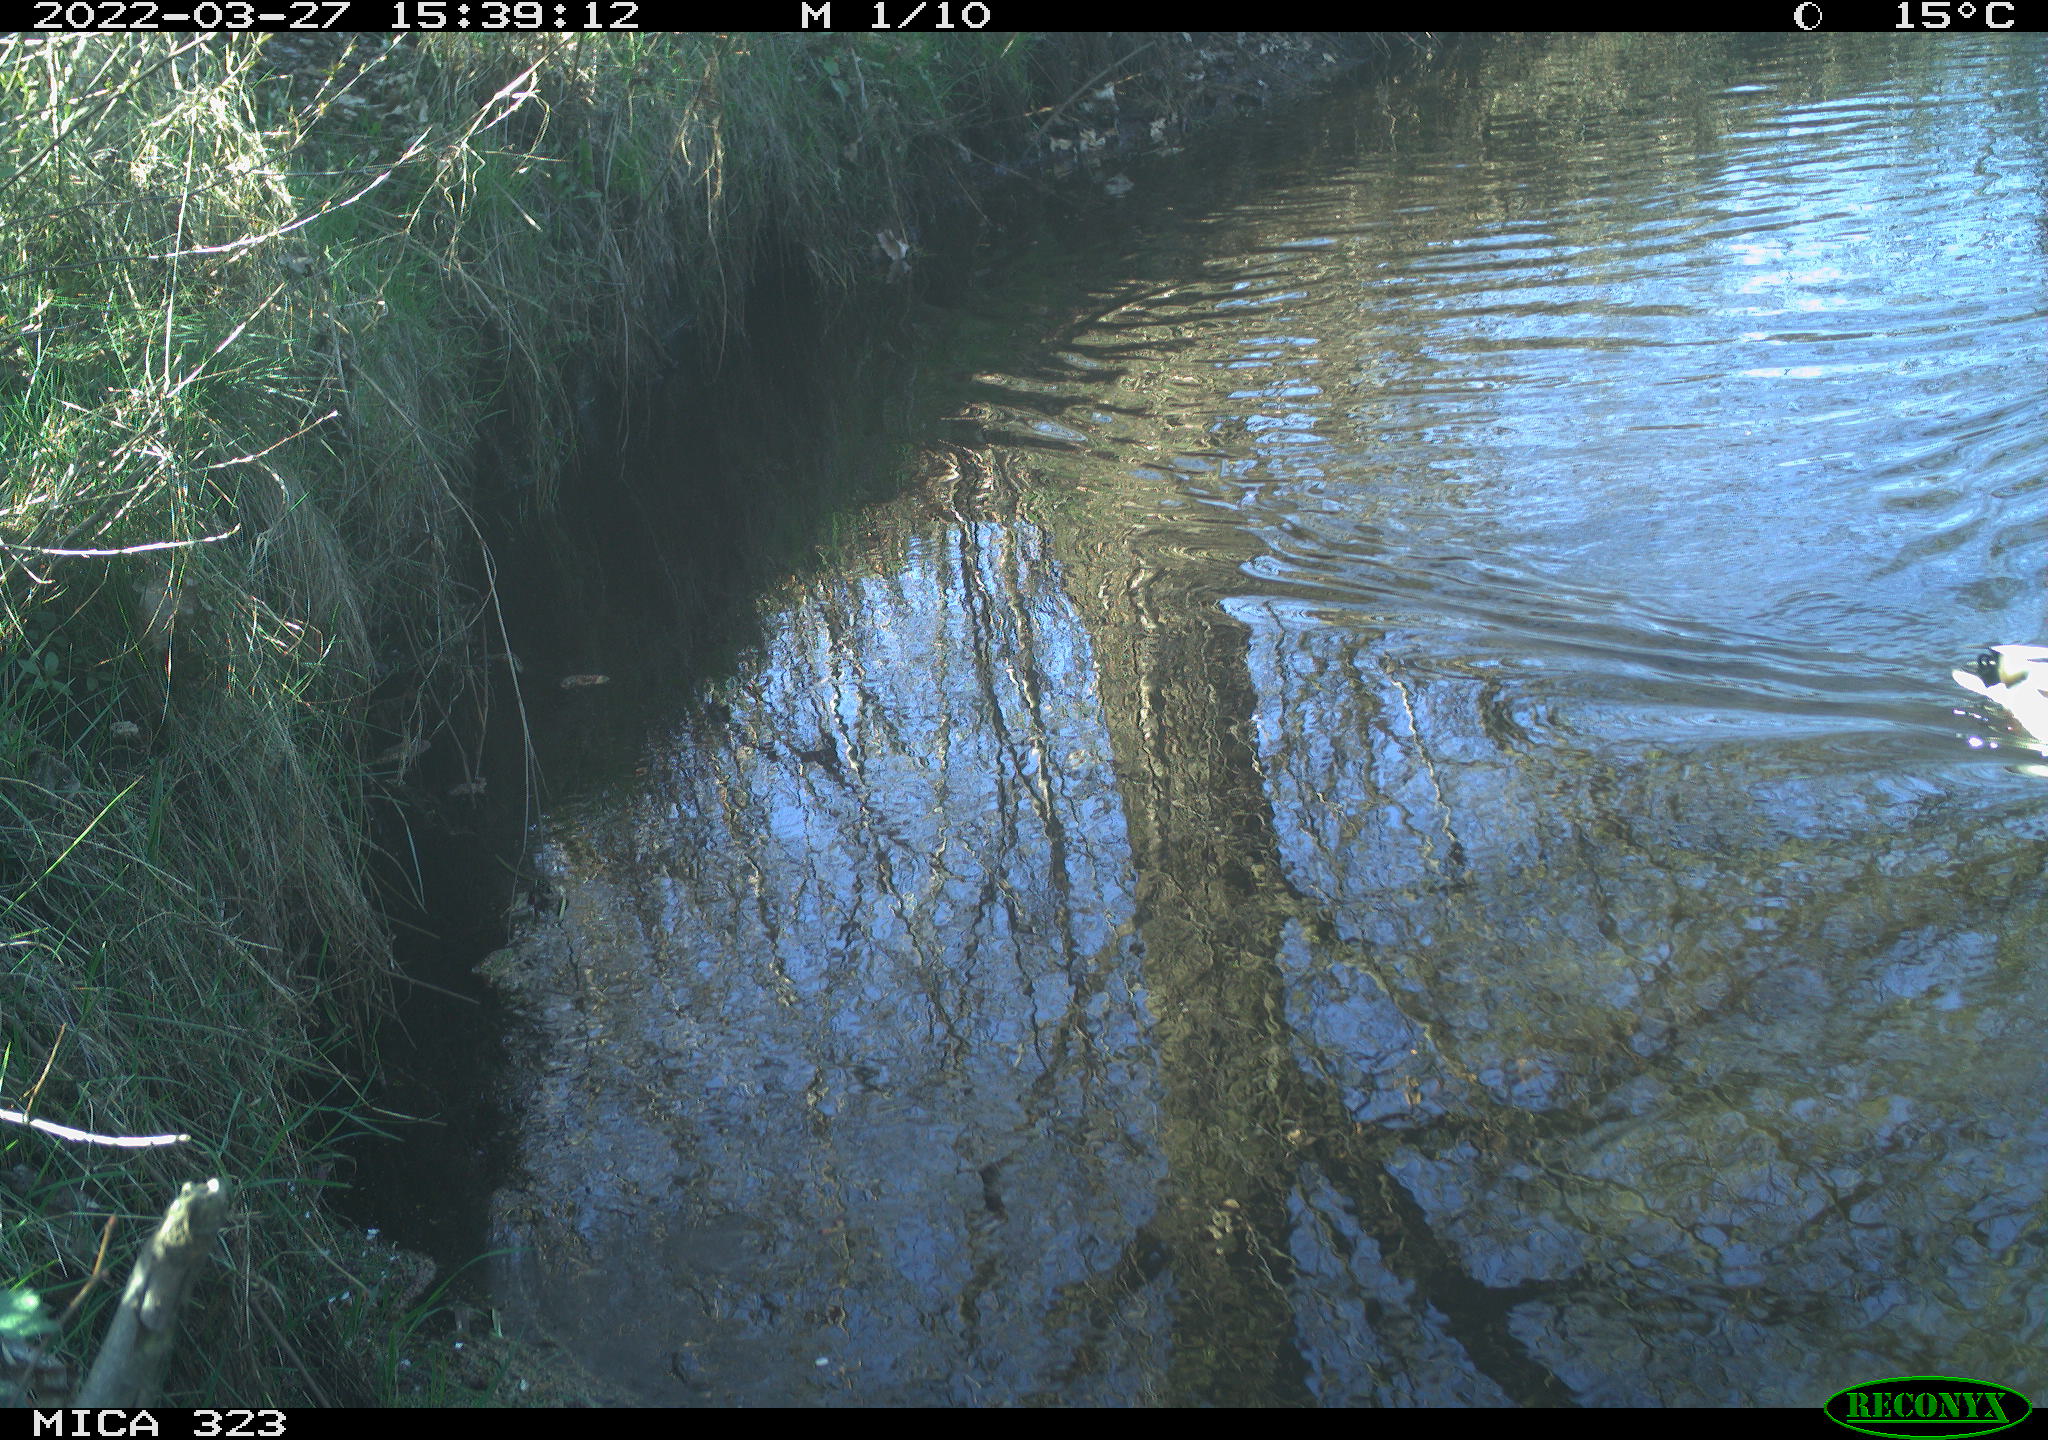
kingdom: Animalia
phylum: Chordata
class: Aves
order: Anseriformes
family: Anatidae
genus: Anas
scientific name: Anas
